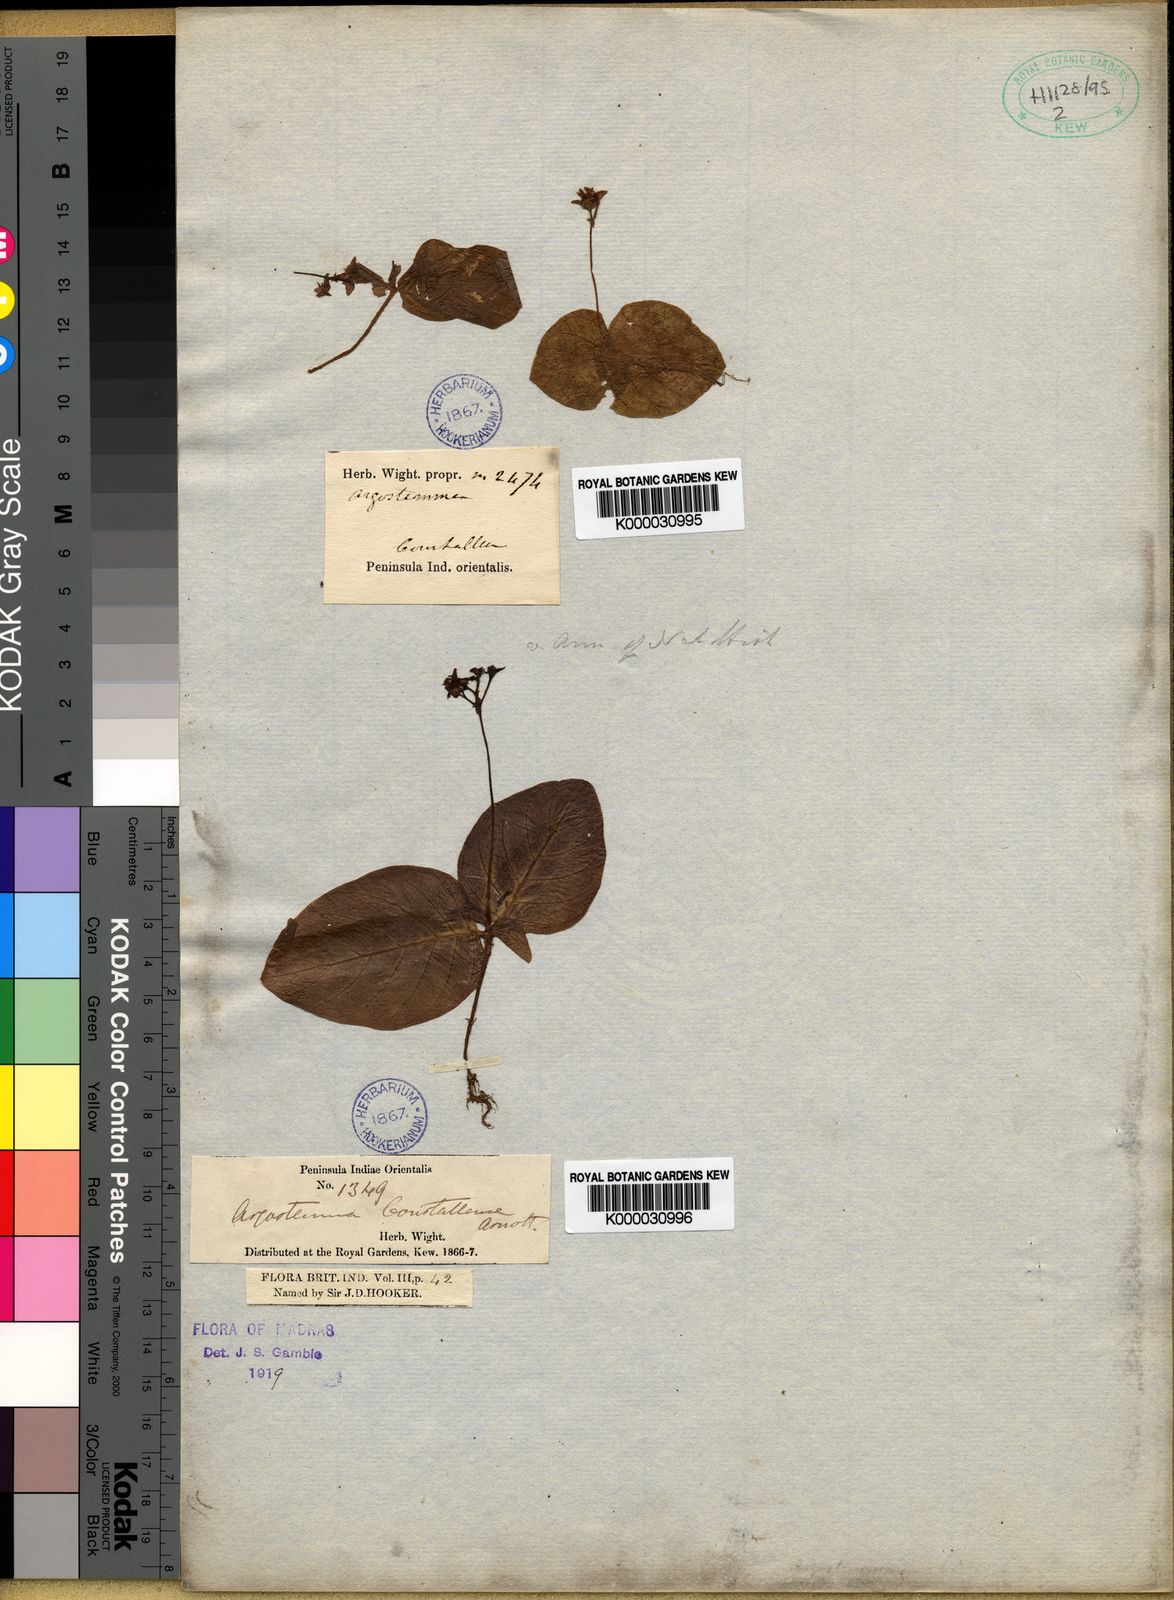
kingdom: Plantae
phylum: Tracheophyta
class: Magnoliopsida
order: Gentianales
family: Rubiaceae
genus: Argostemma
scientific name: Argostemma courtallense
